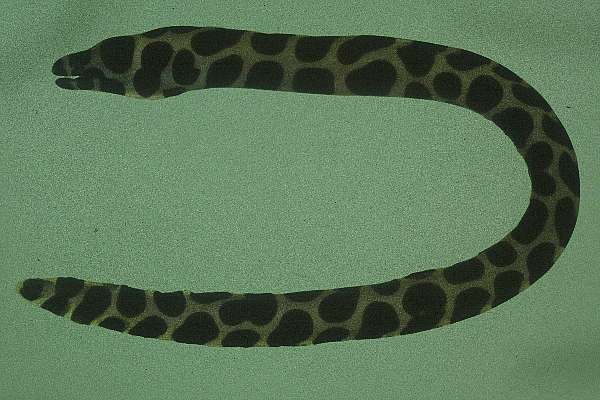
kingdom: Animalia
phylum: Chordata
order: Anguilliformes
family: Muraenidae
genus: Gymnothorax
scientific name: Gymnothorax favagineus
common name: Honeycomb moray
